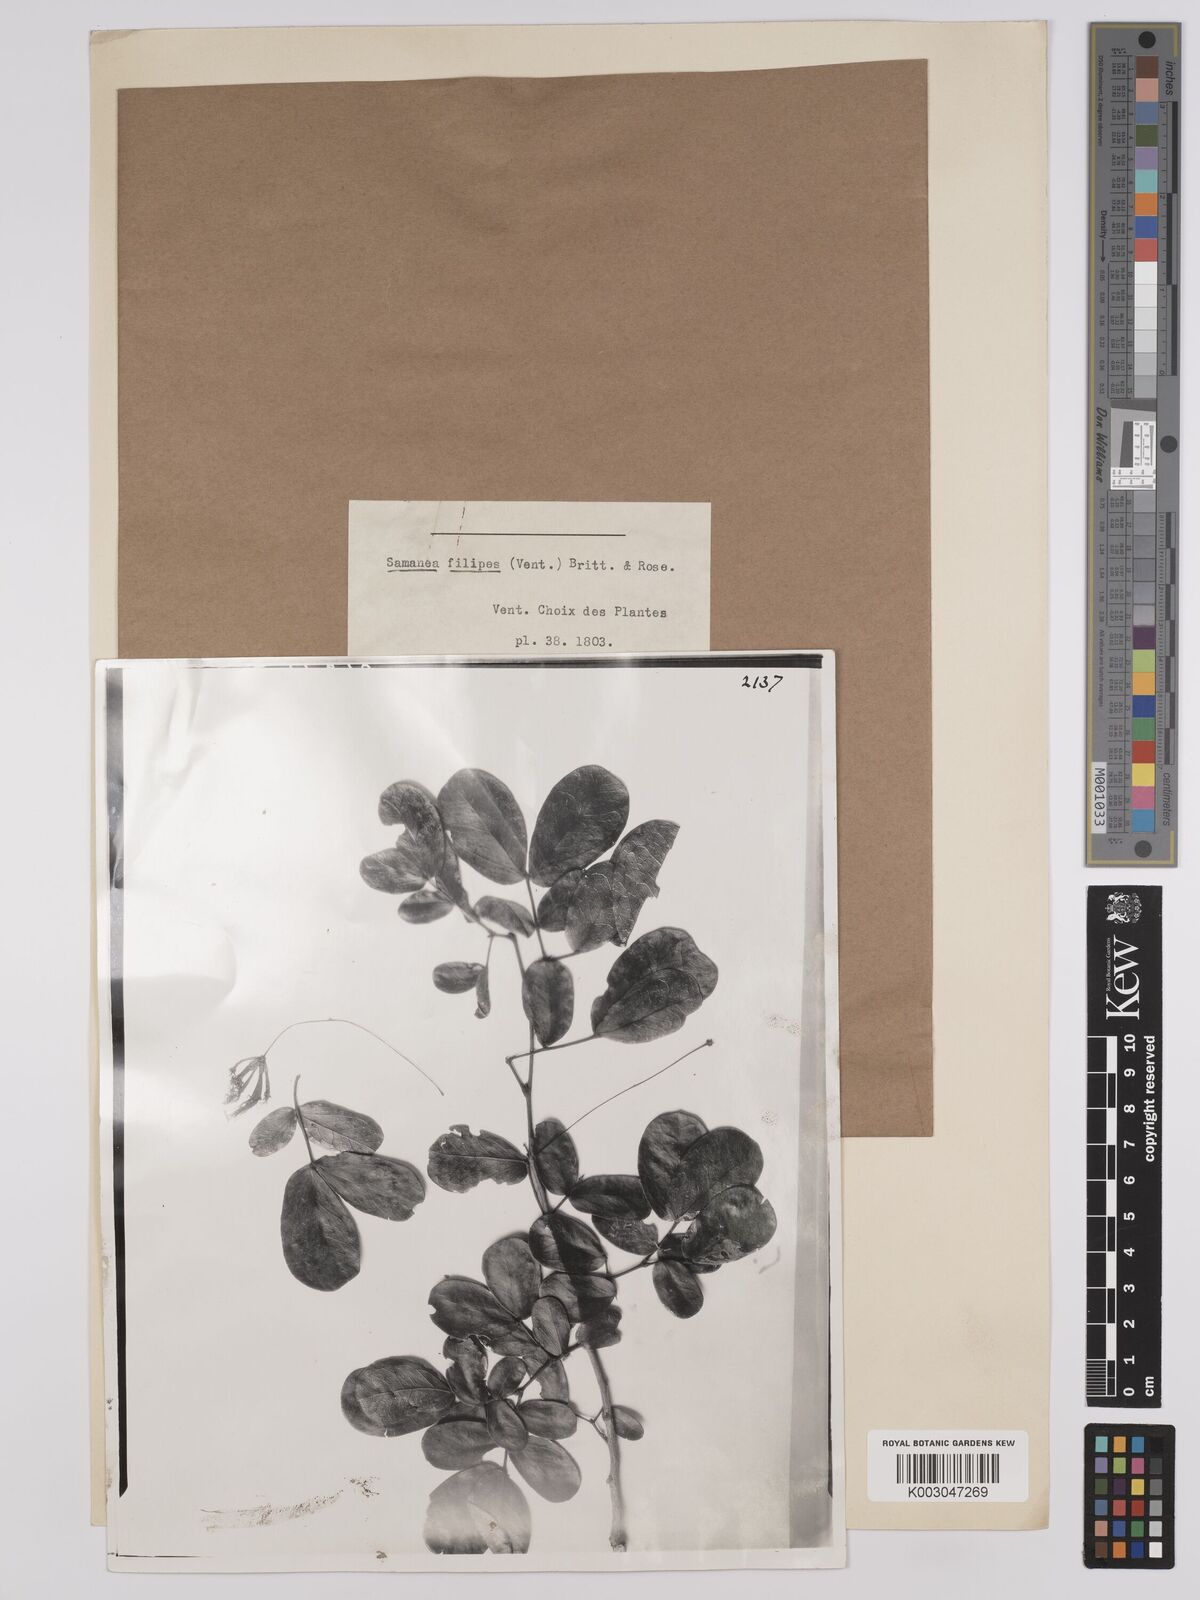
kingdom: Plantae
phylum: Tracheophyta
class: Magnoliopsida
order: Fabales
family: Fabaceae
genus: Albizia
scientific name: Albizia
